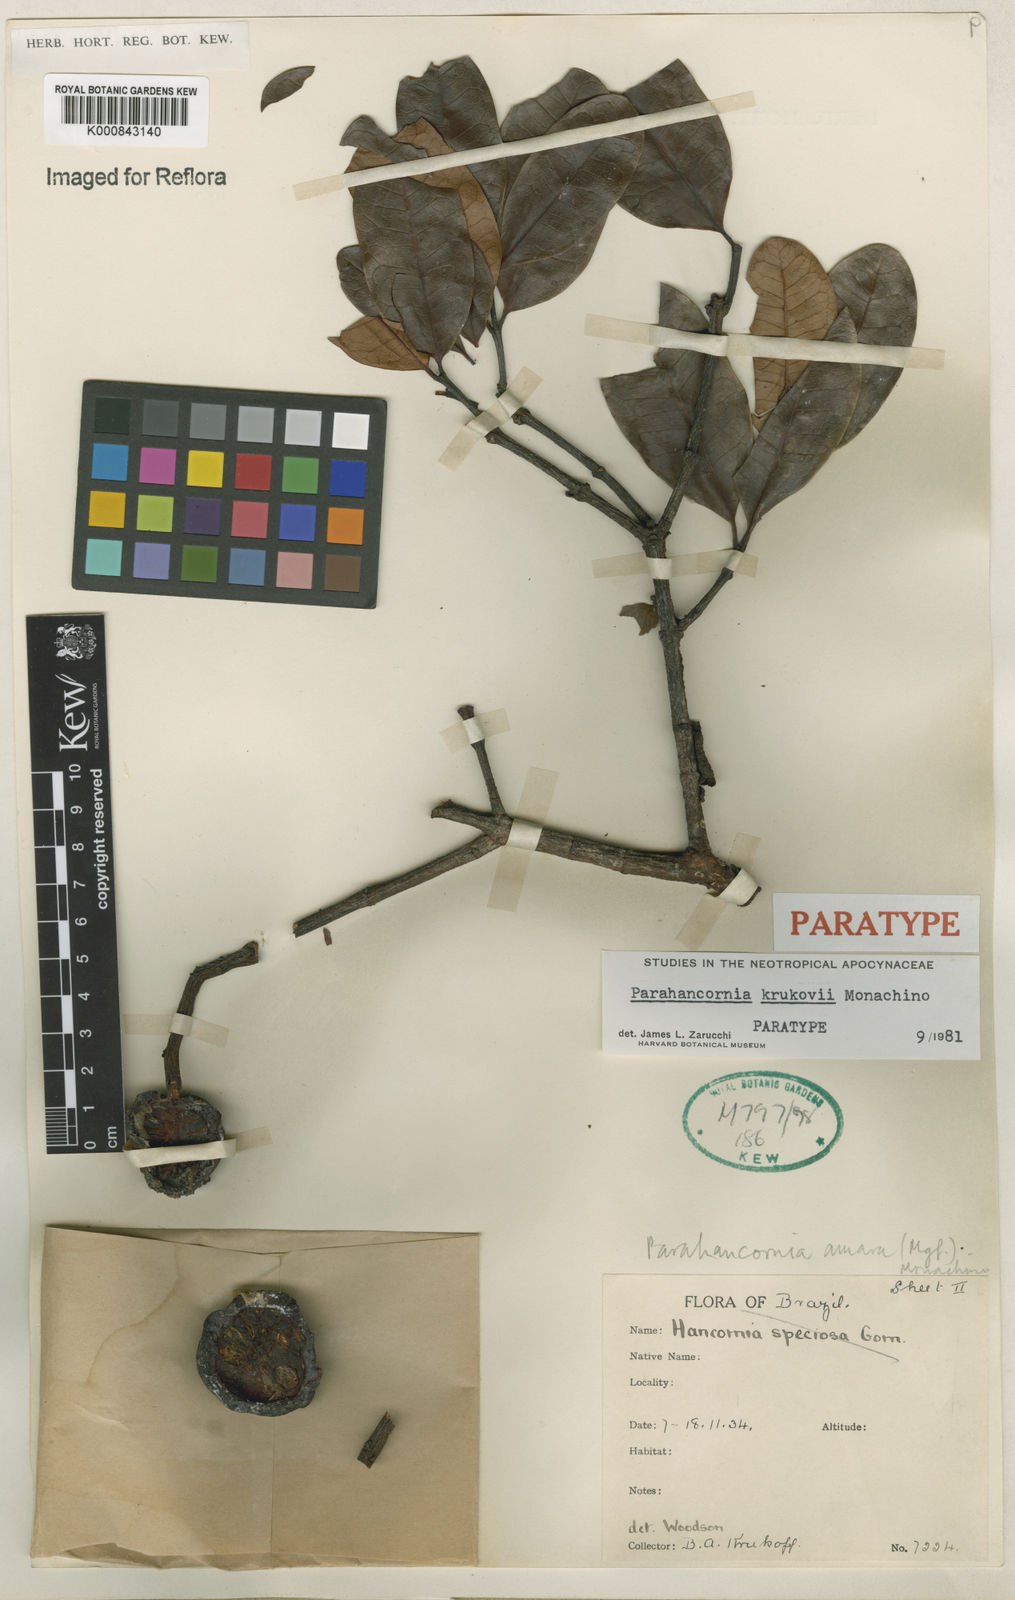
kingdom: Plantae
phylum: Tracheophyta
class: Magnoliopsida
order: Gentianales
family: Apocynaceae
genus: Parahancornia
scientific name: Parahancornia oblonga
